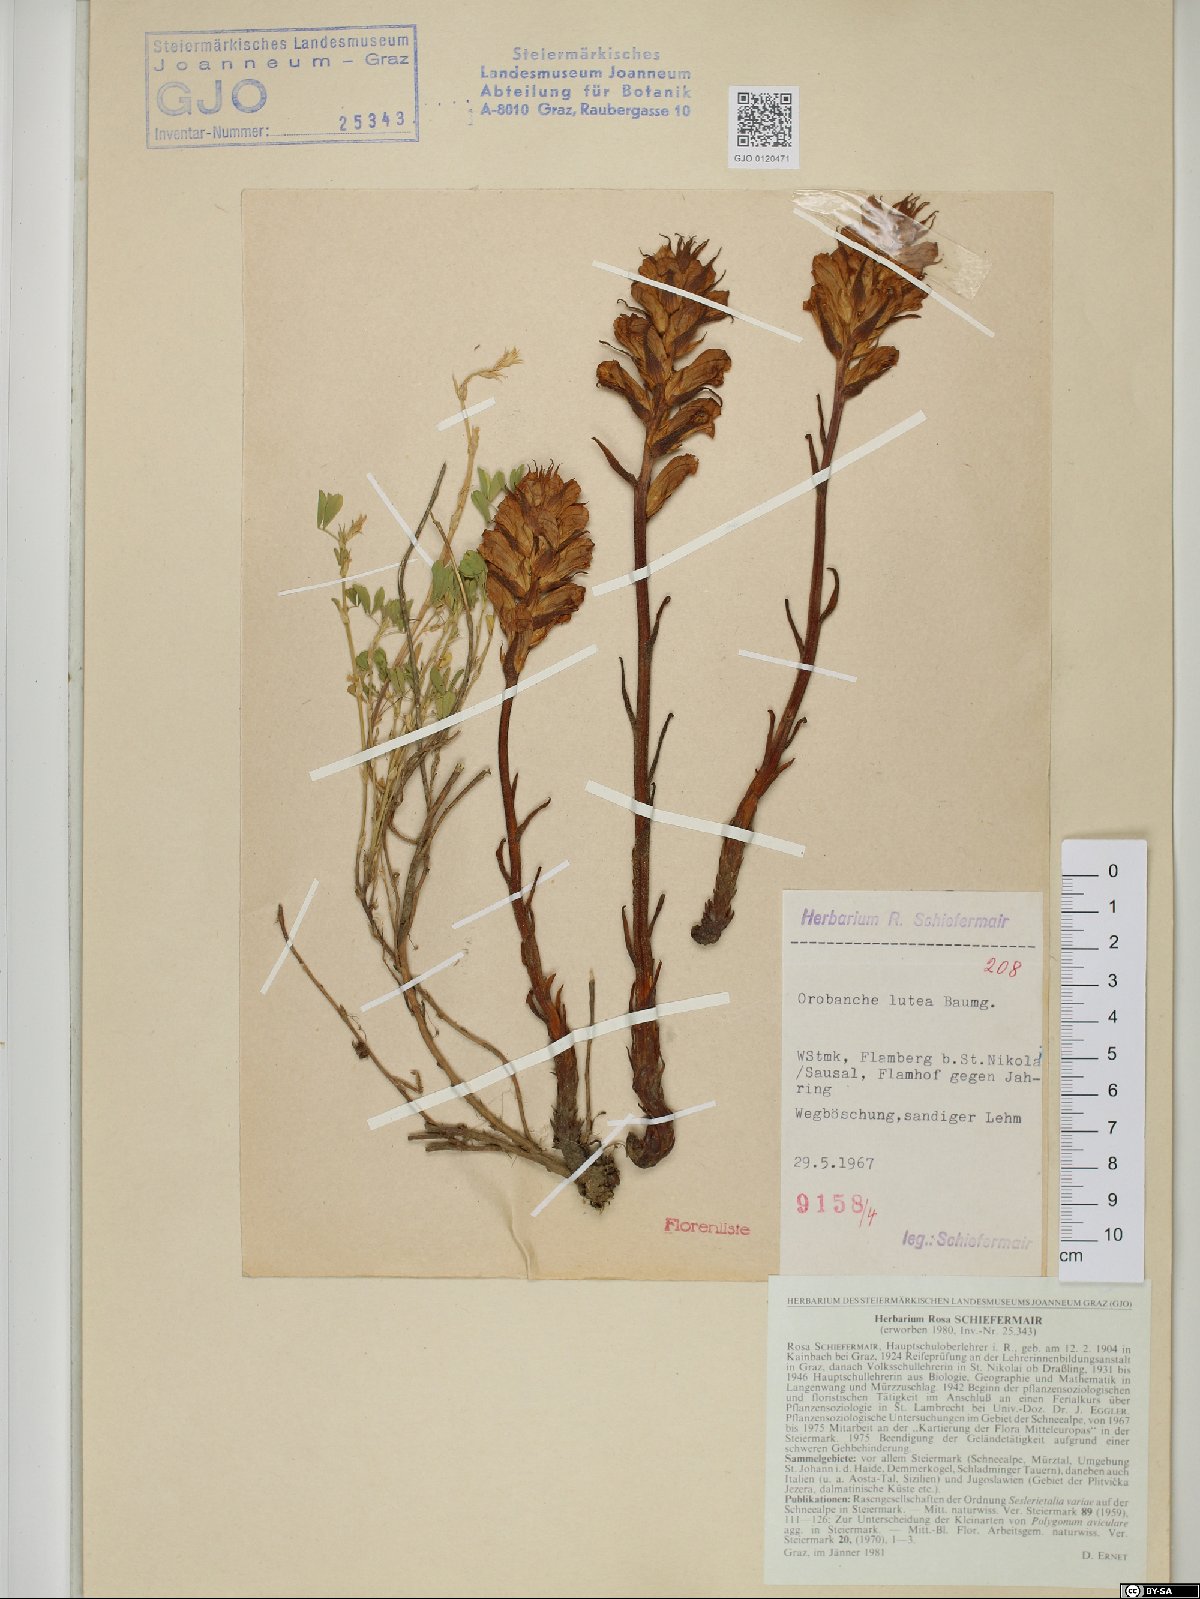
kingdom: Plantae
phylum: Tracheophyta
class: Magnoliopsida
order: Lamiales
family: Orobanchaceae
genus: Orobanche
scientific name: Orobanche lutea
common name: Yellow broomrape
